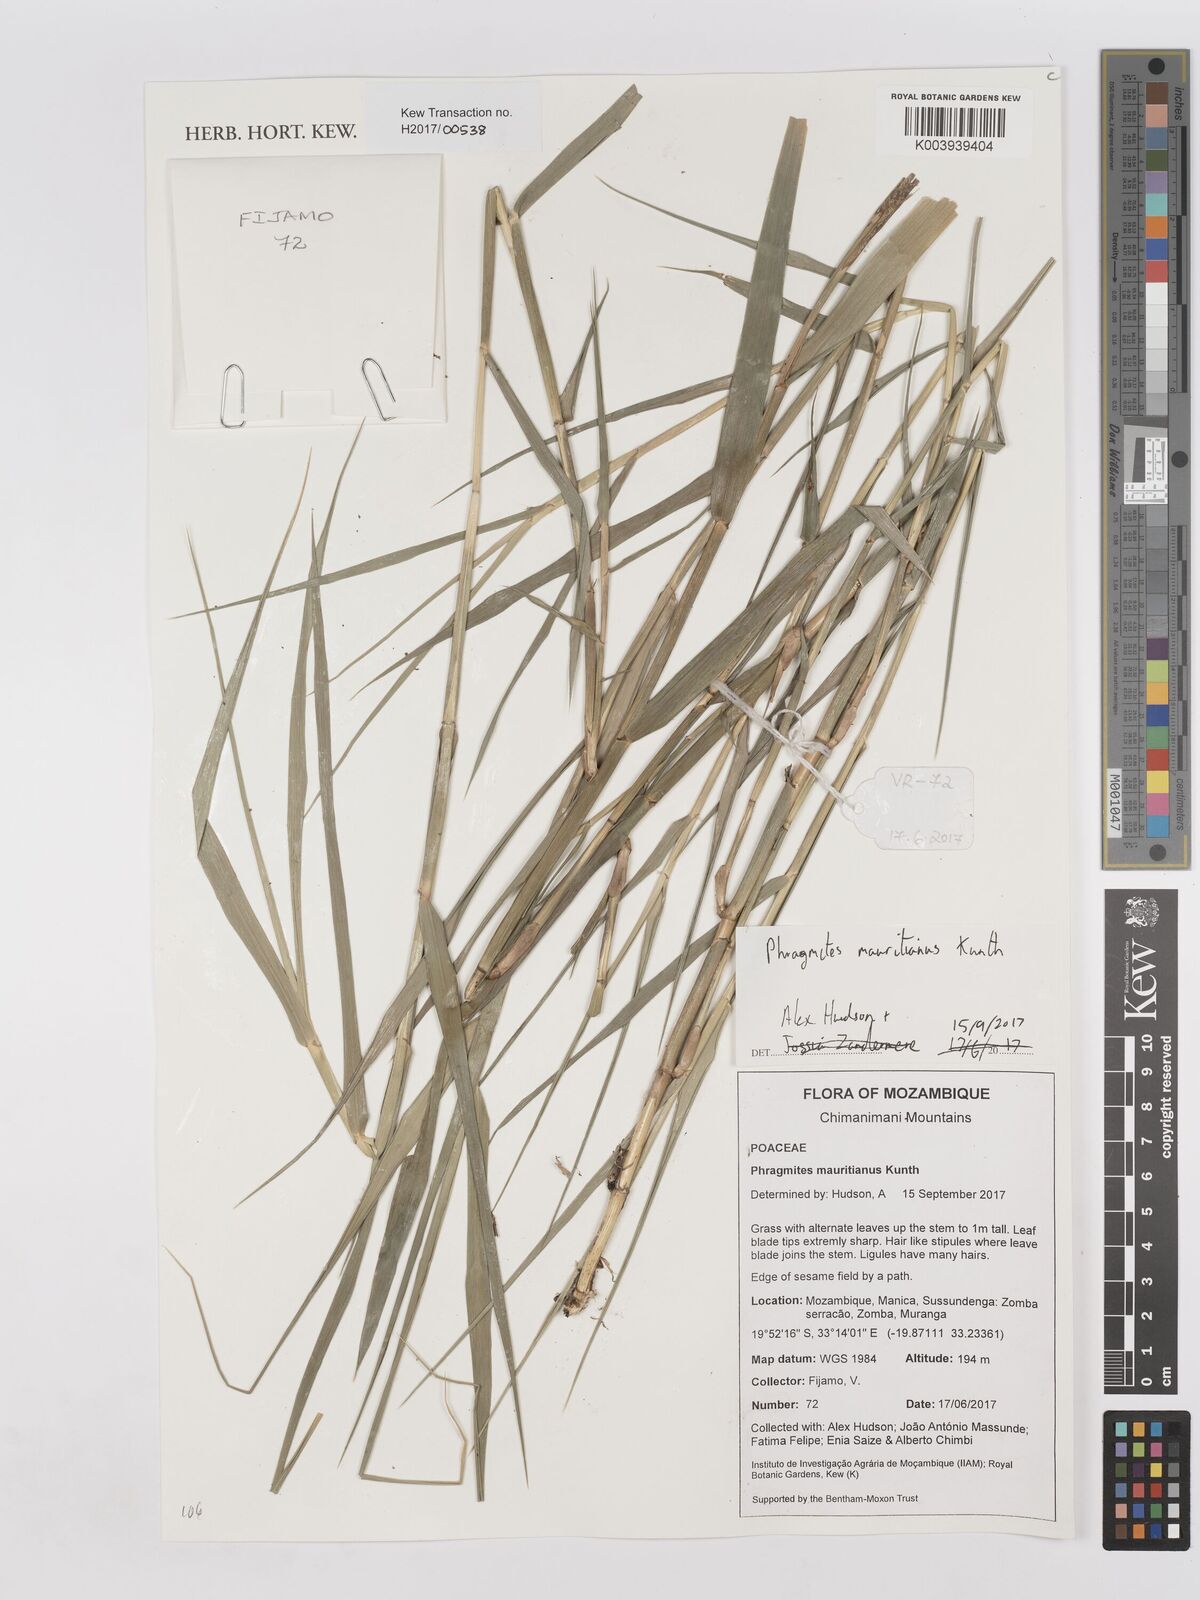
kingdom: Plantae
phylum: Tracheophyta
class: Liliopsida
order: Poales
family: Poaceae
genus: Phragmites
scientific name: Phragmites mauritianus
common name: Reed grass
